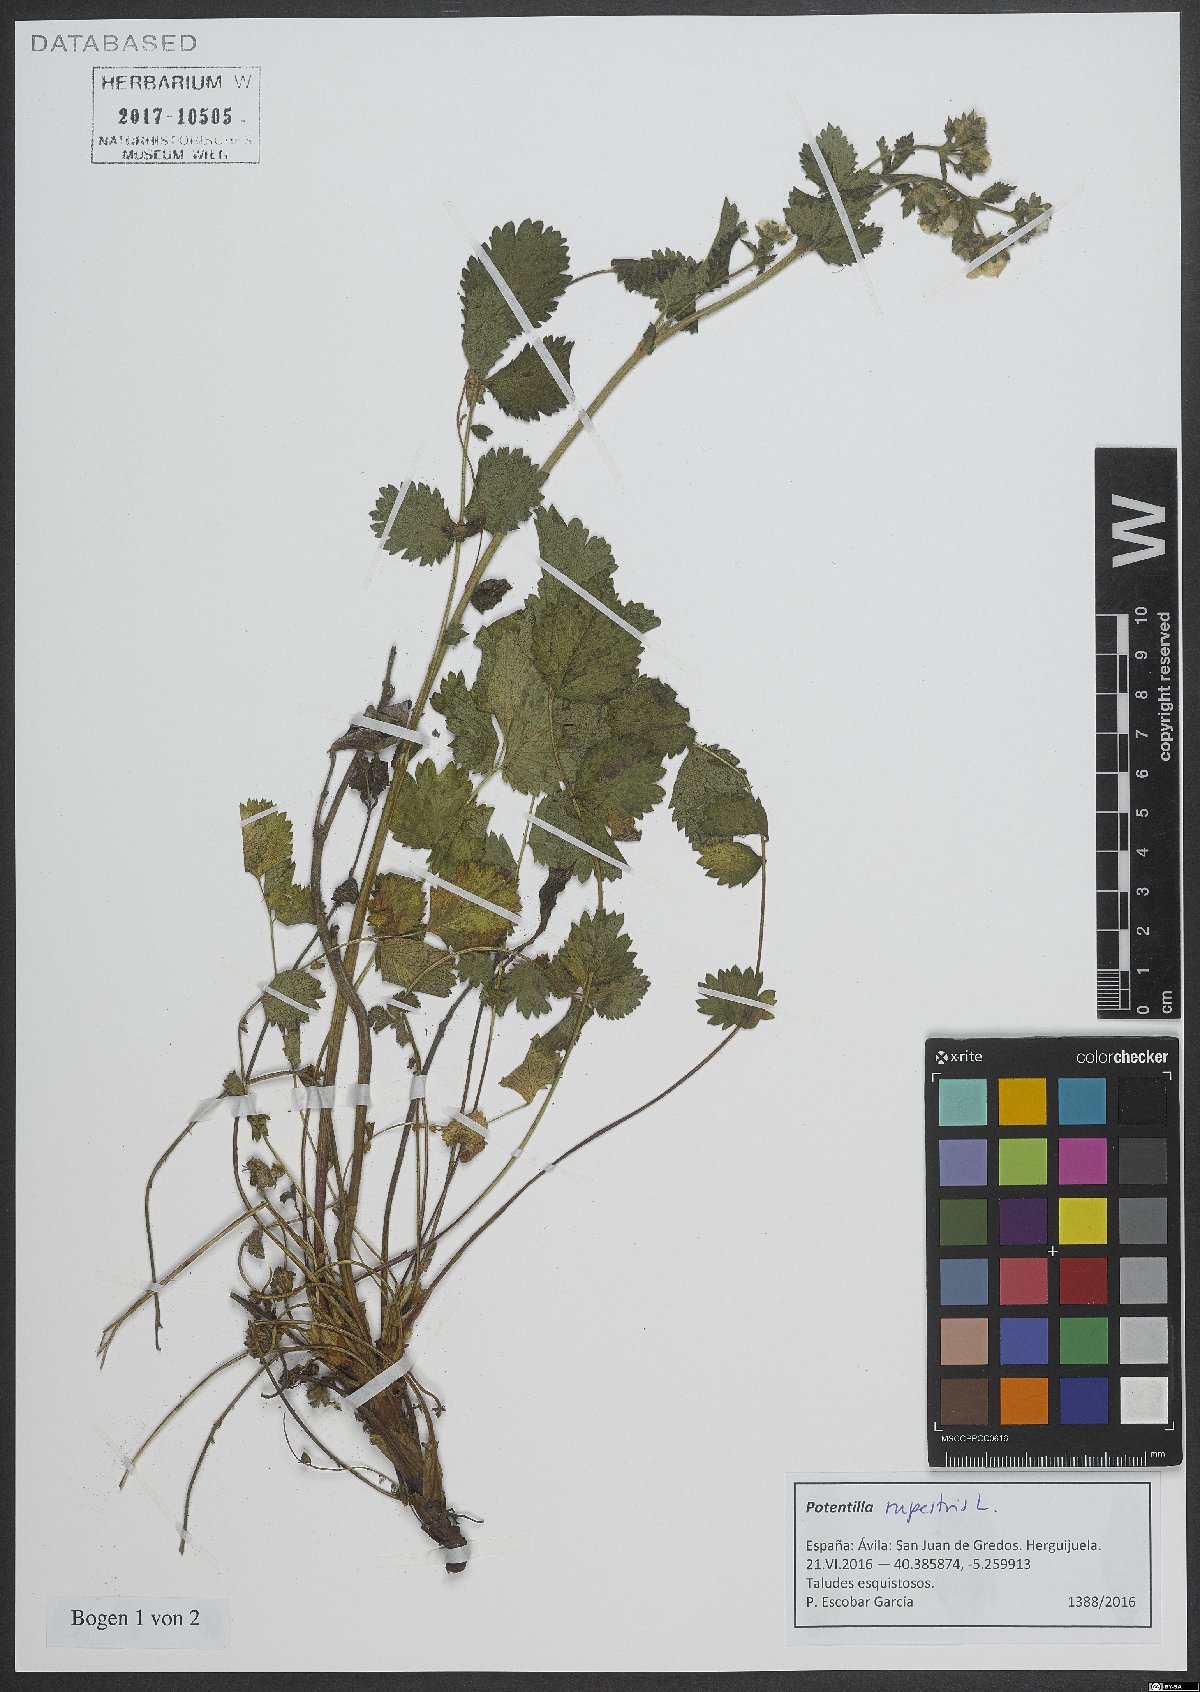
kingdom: Plantae
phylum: Tracheophyta
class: Magnoliopsida
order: Rosales
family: Rosaceae
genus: Drymocallis
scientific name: Drymocallis rupestris
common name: Rock cinquefoil
